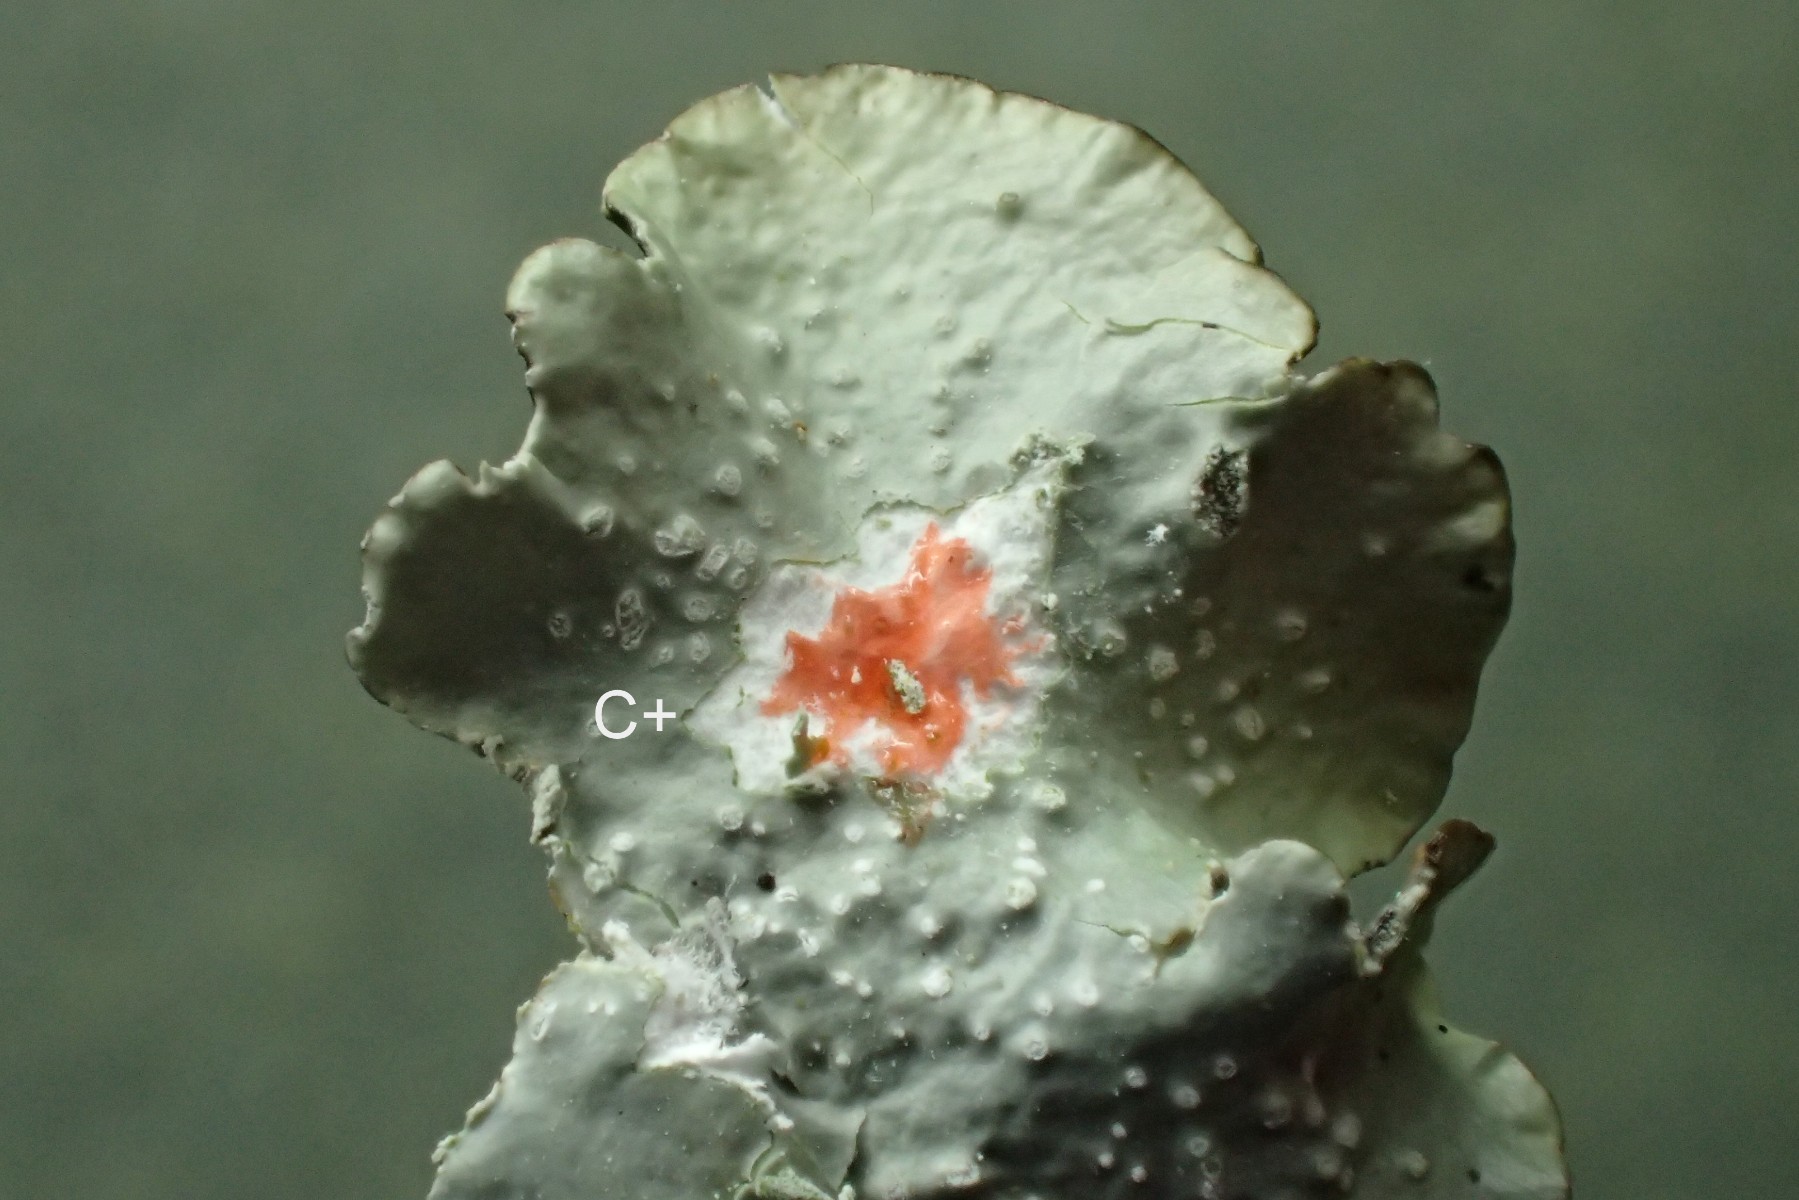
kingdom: Fungi
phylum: Ascomycota
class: Lecanoromycetes
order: Lecanorales
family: Parmeliaceae
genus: Punctelia
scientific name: Punctelia subrudecta
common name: punkt-skållav
